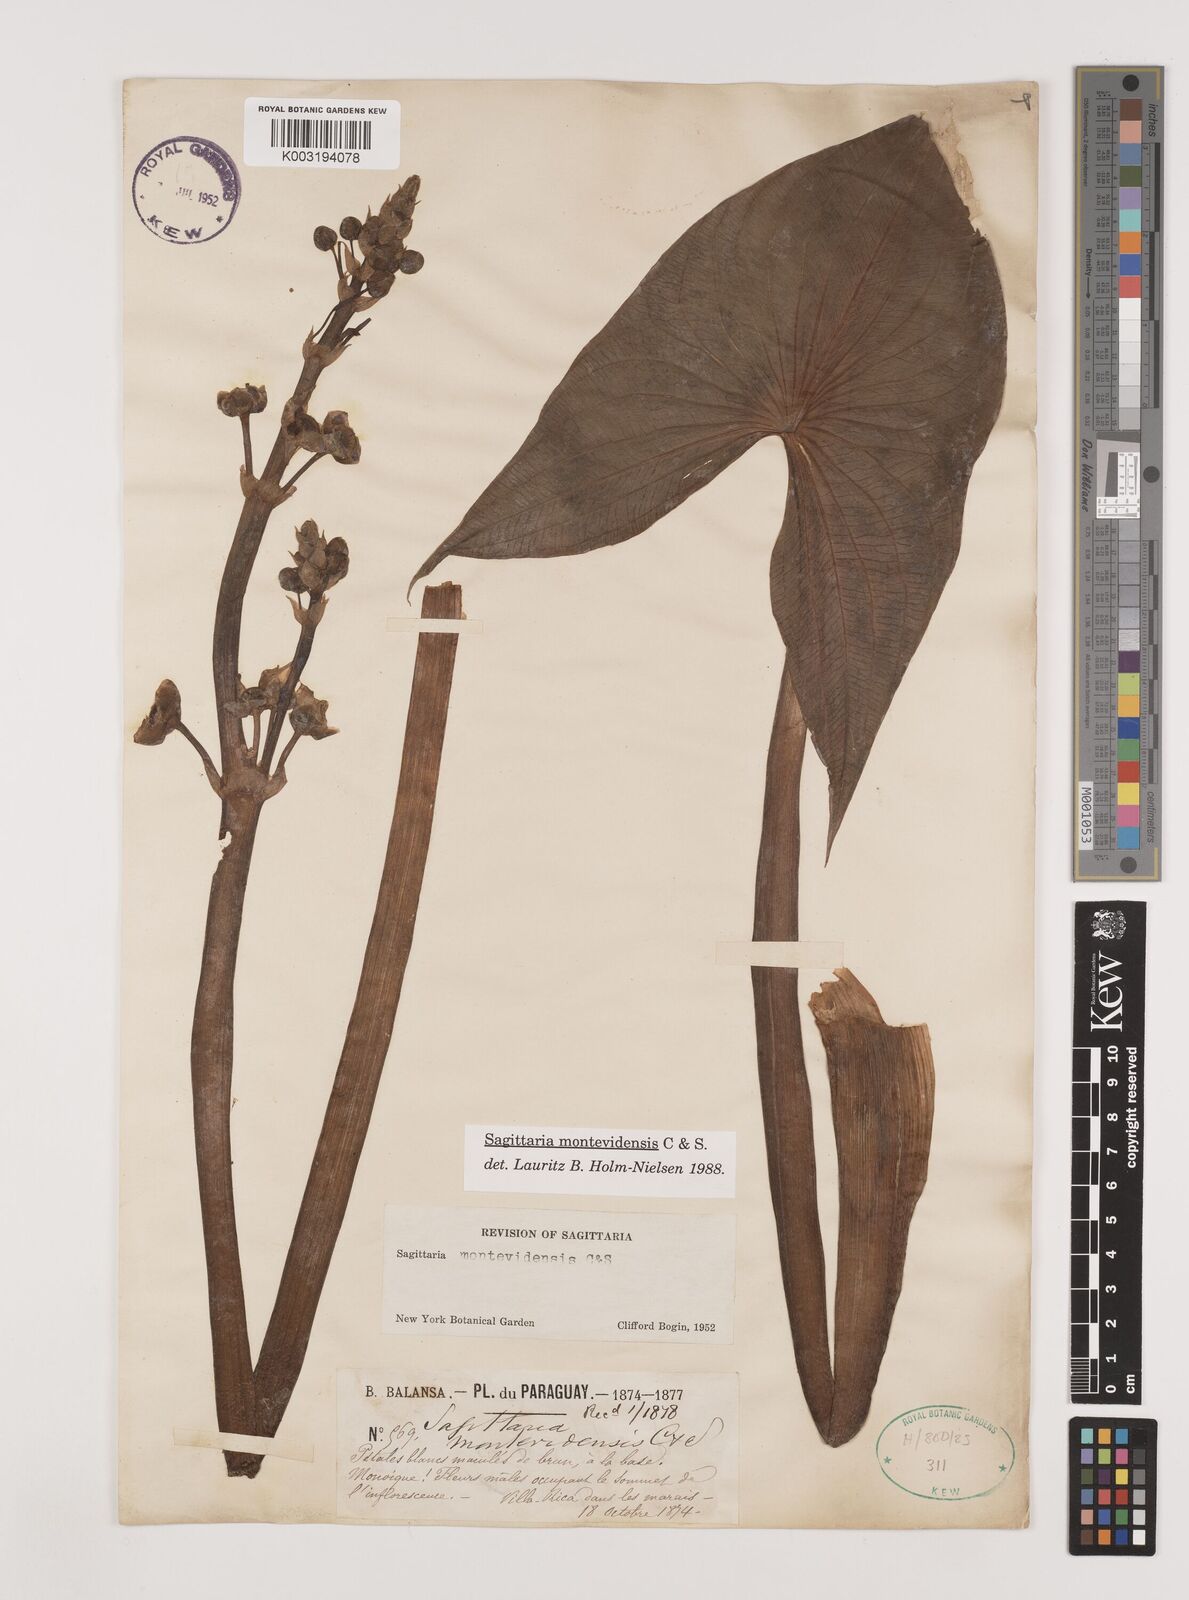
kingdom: Plantae
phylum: Tracheophyta
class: Liliopsida
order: Alismatales
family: Alismataceae
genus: Sagittaria
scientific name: Sagittaria montevidensis
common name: Giant arrowhead
